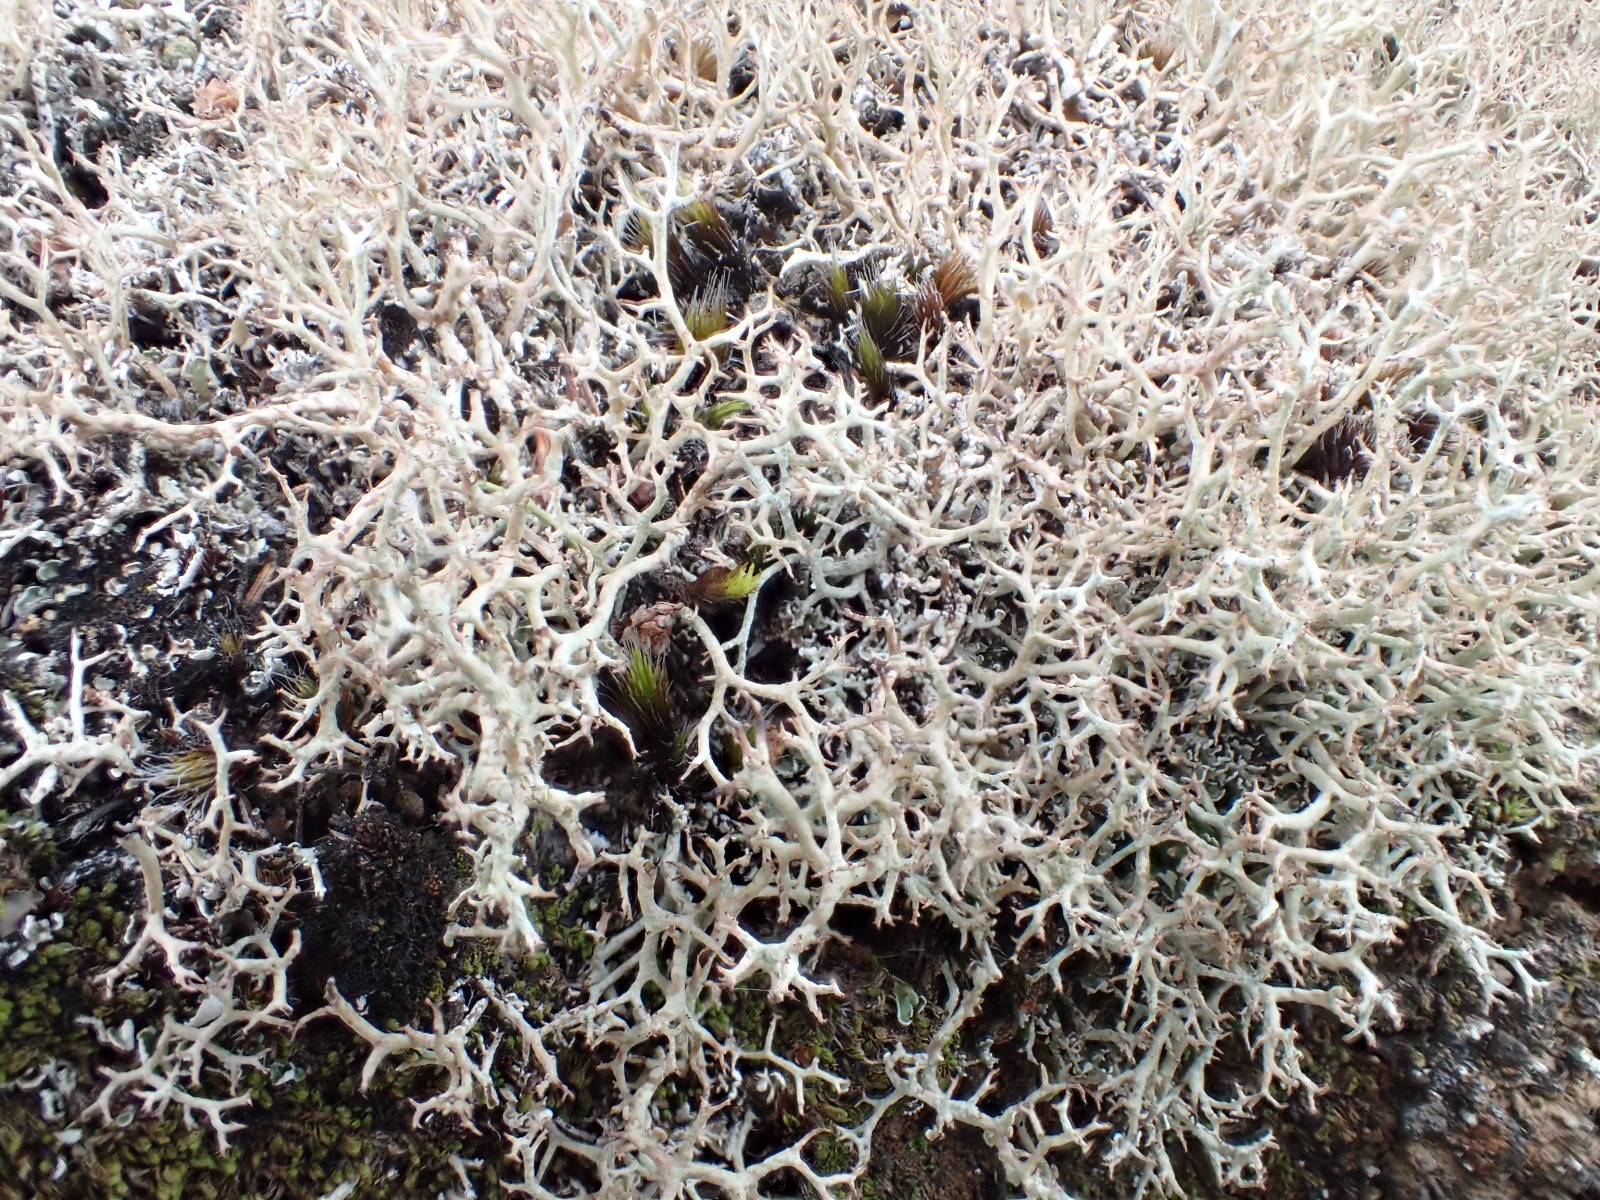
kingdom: Fungi
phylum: Ascomycota
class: Lecanoromycetes
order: Lecanorales
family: Cladoniaceae
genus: Cladonia
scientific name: Cladonia rangiformis
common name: spættet bægerlav
